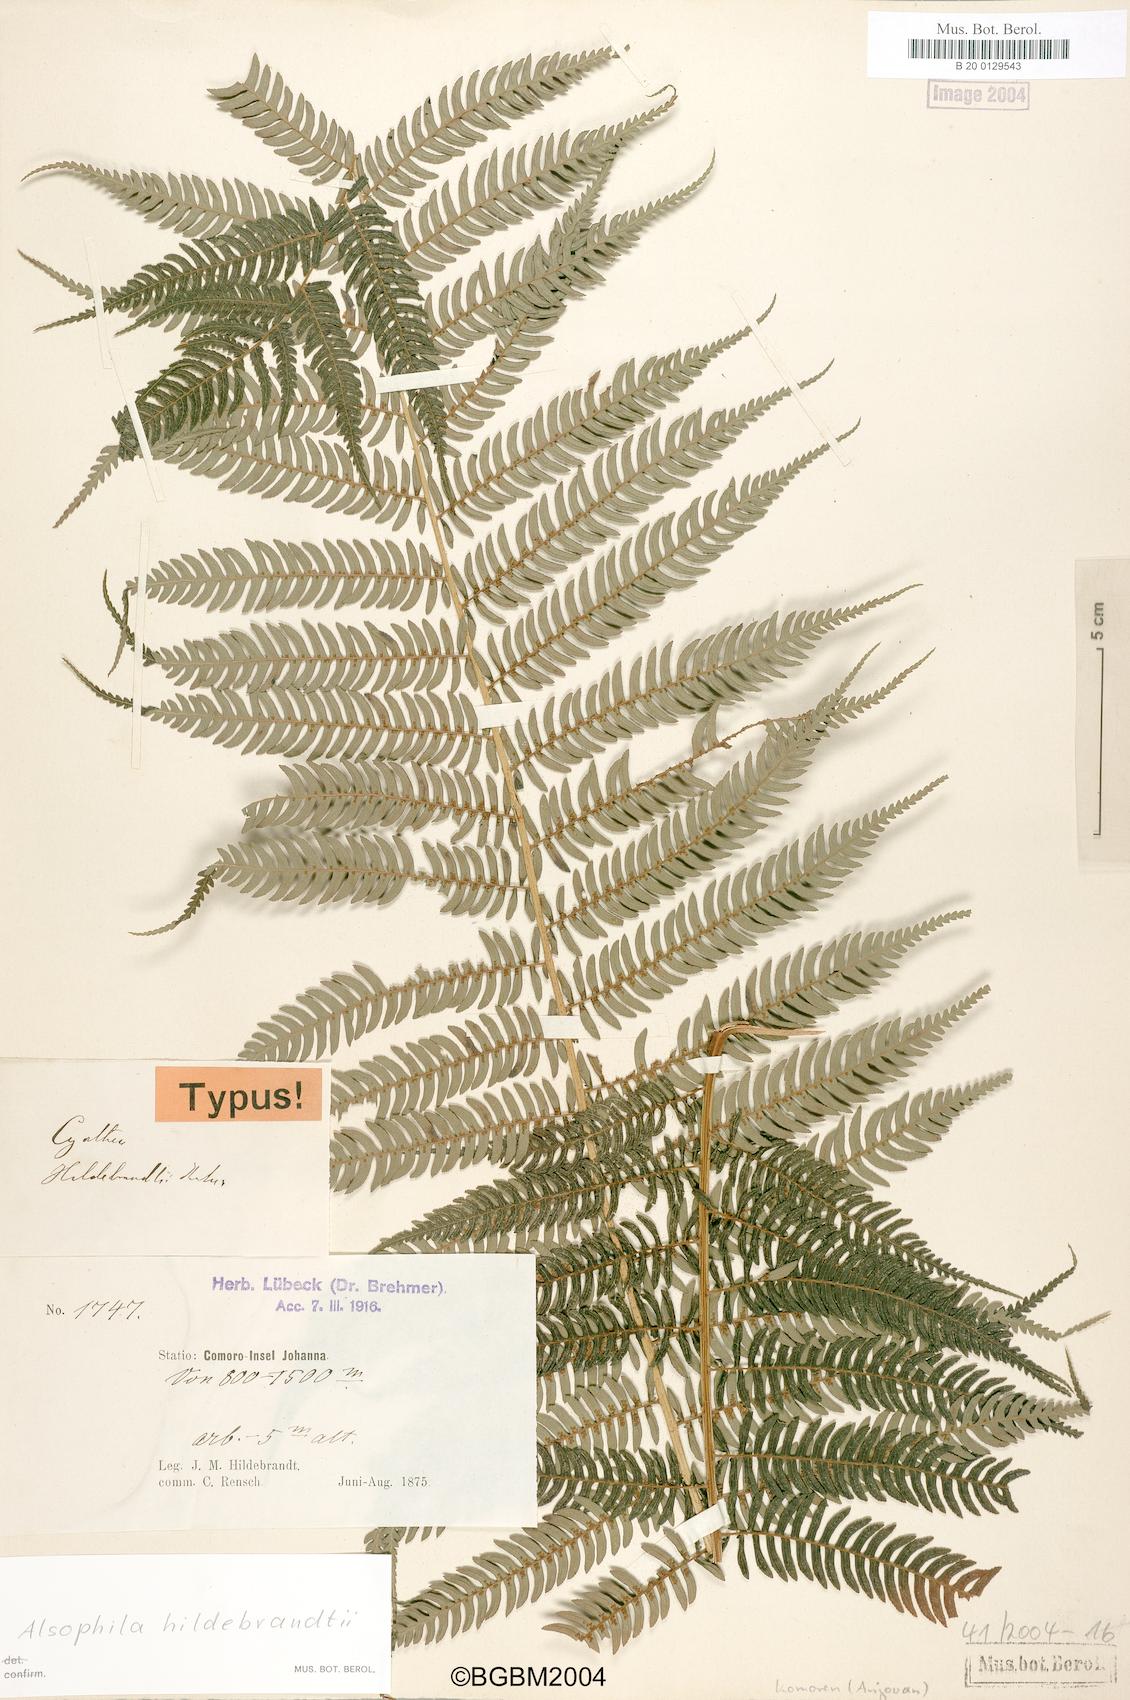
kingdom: Plantae
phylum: Tracheophyta
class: Polypodiopsida
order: Cyatheales
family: Cyatheaceae
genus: Gymnosphaera
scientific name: Gymnosphaera boivinii
